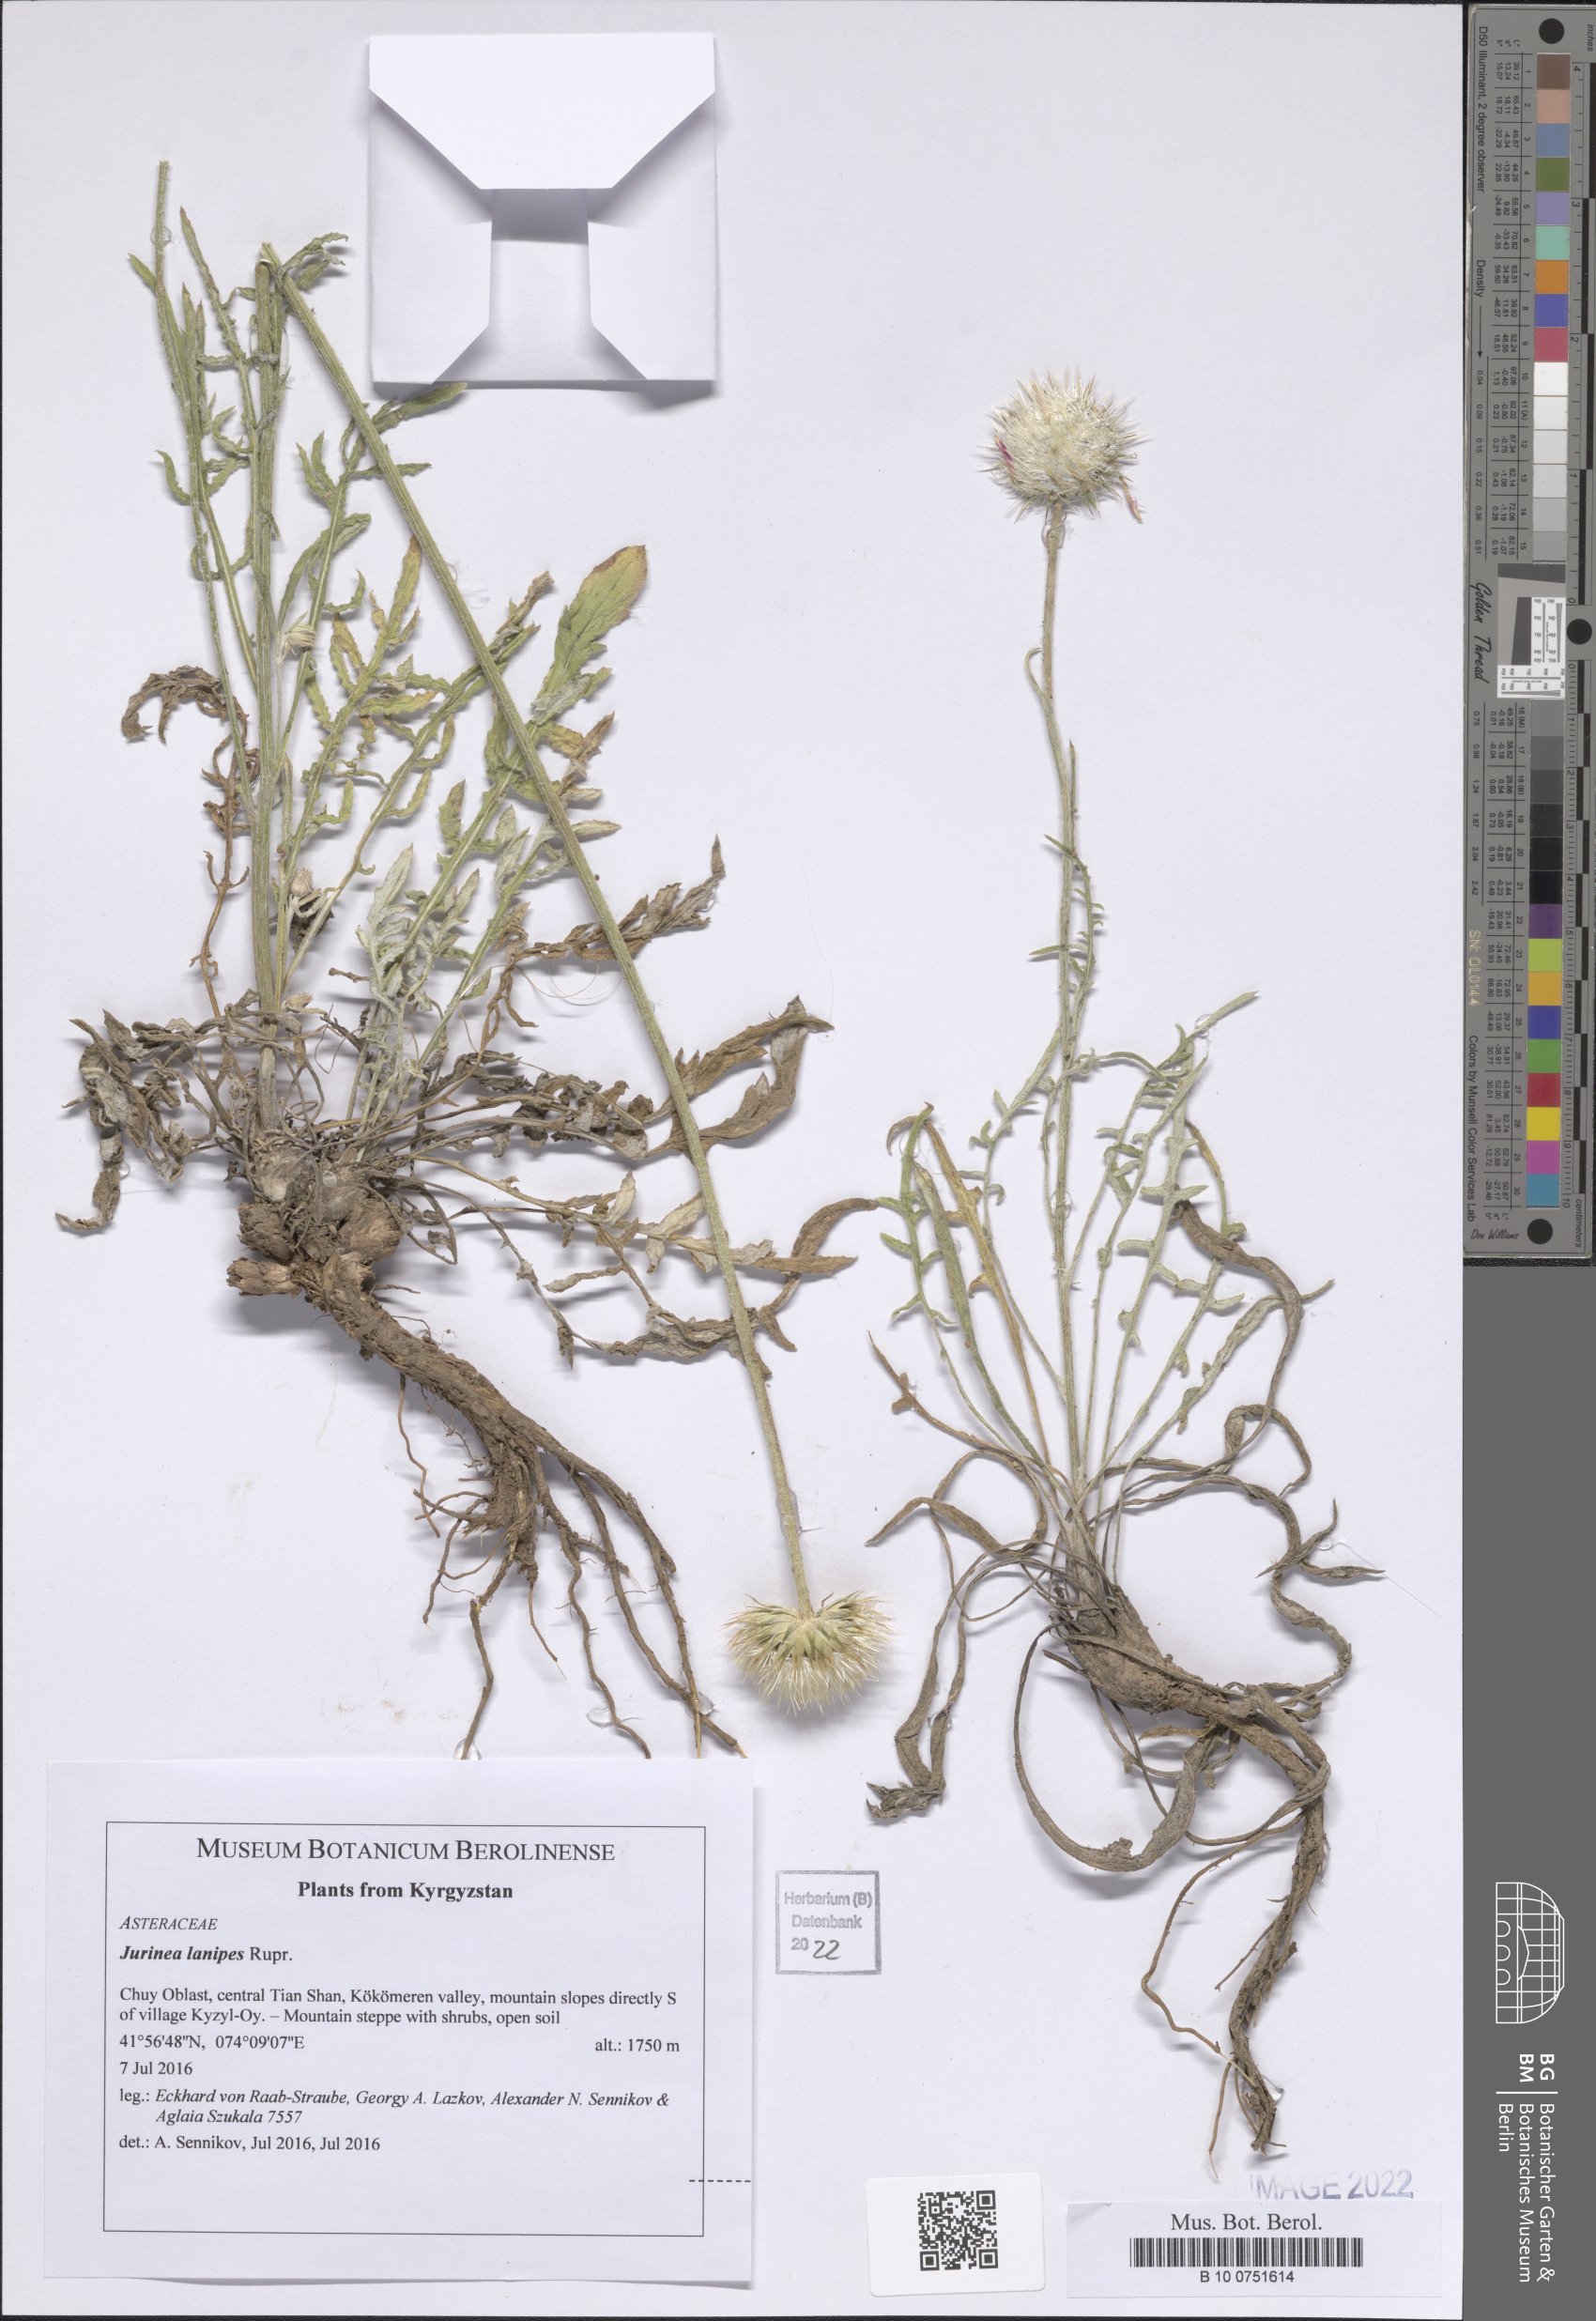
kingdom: Plantae
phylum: Tracheophyta
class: Magnoliopsida
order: Asterales
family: Asteraceae
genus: Jurinea
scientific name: Jurinea lanipes
